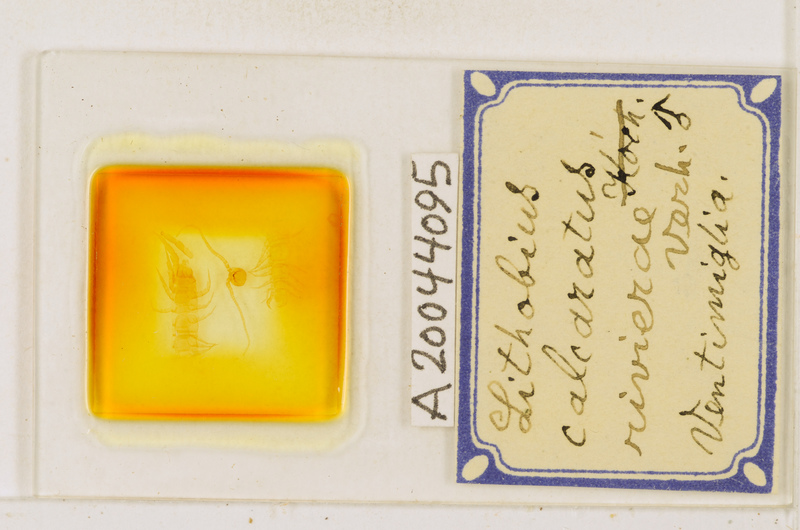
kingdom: Animalia
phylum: Arthropoda
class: Chilopoda
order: Lithobiomorpha
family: Lithobiidae
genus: Lithobius
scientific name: Lithobius calcaratus
